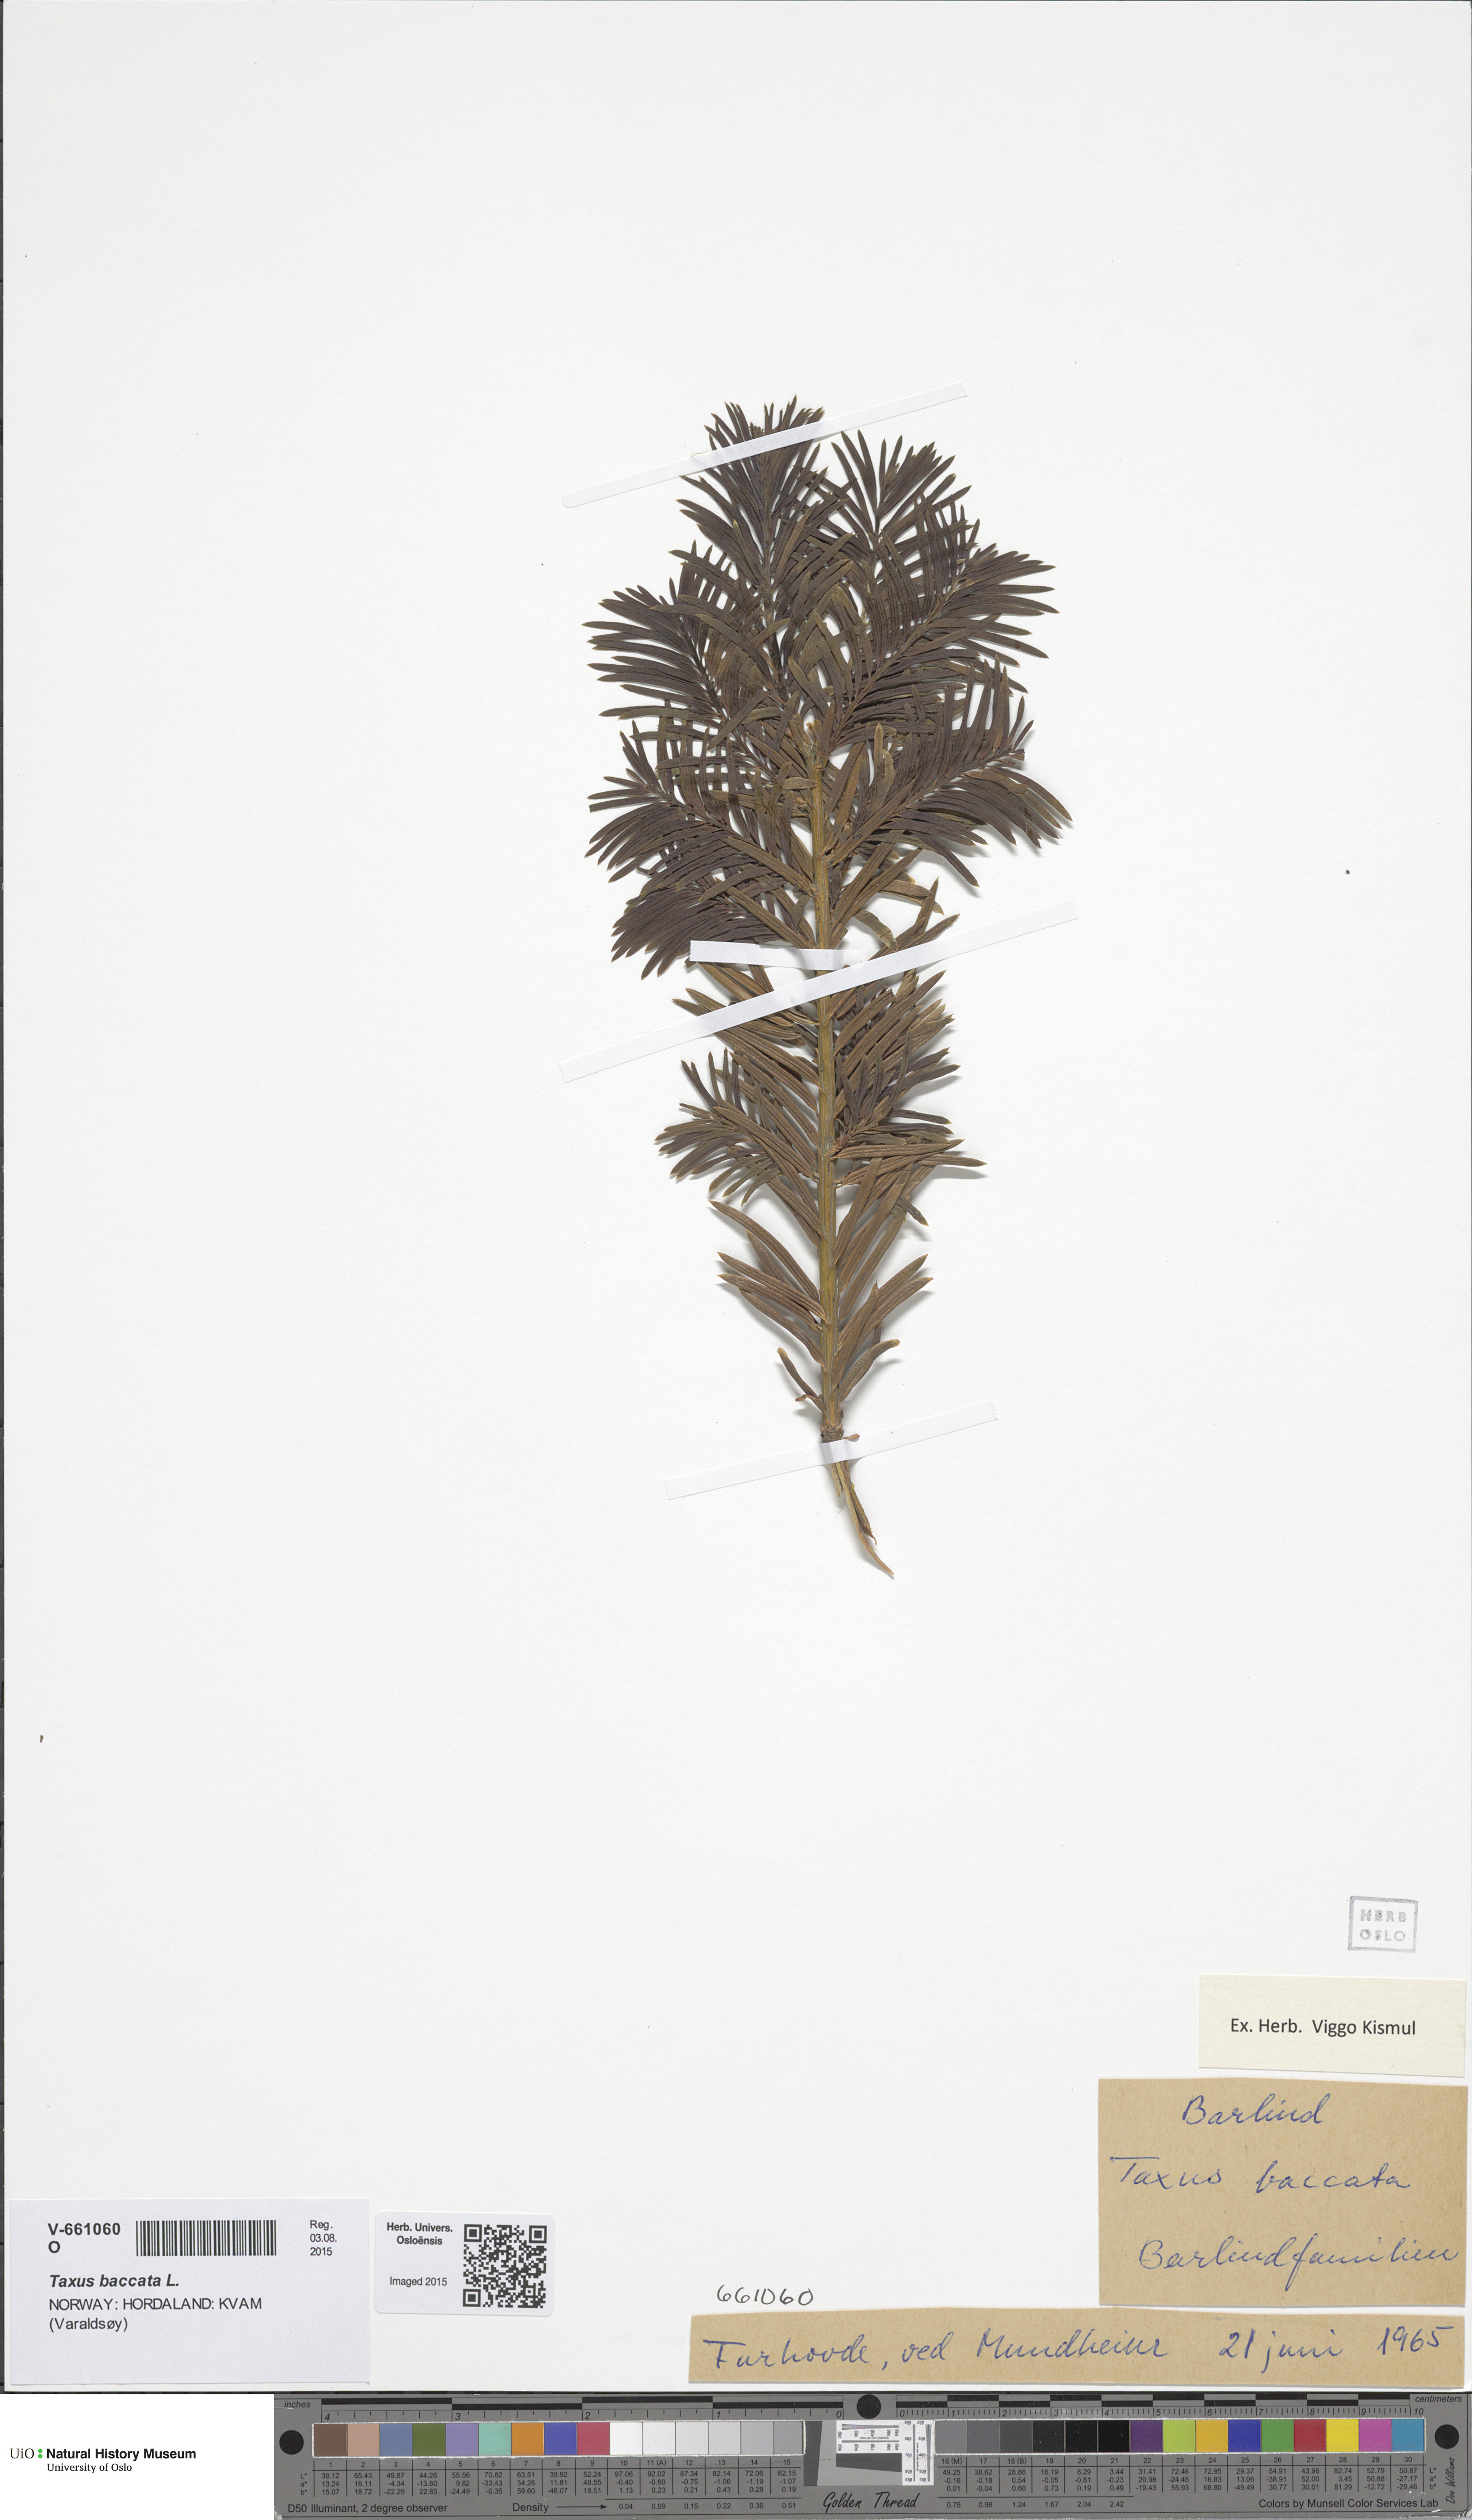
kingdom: Plantae
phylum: Tracheophyta
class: Pinopsida
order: Pinales
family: Taxaceae
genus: Taxus
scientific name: Taxus baccata
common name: Yew
